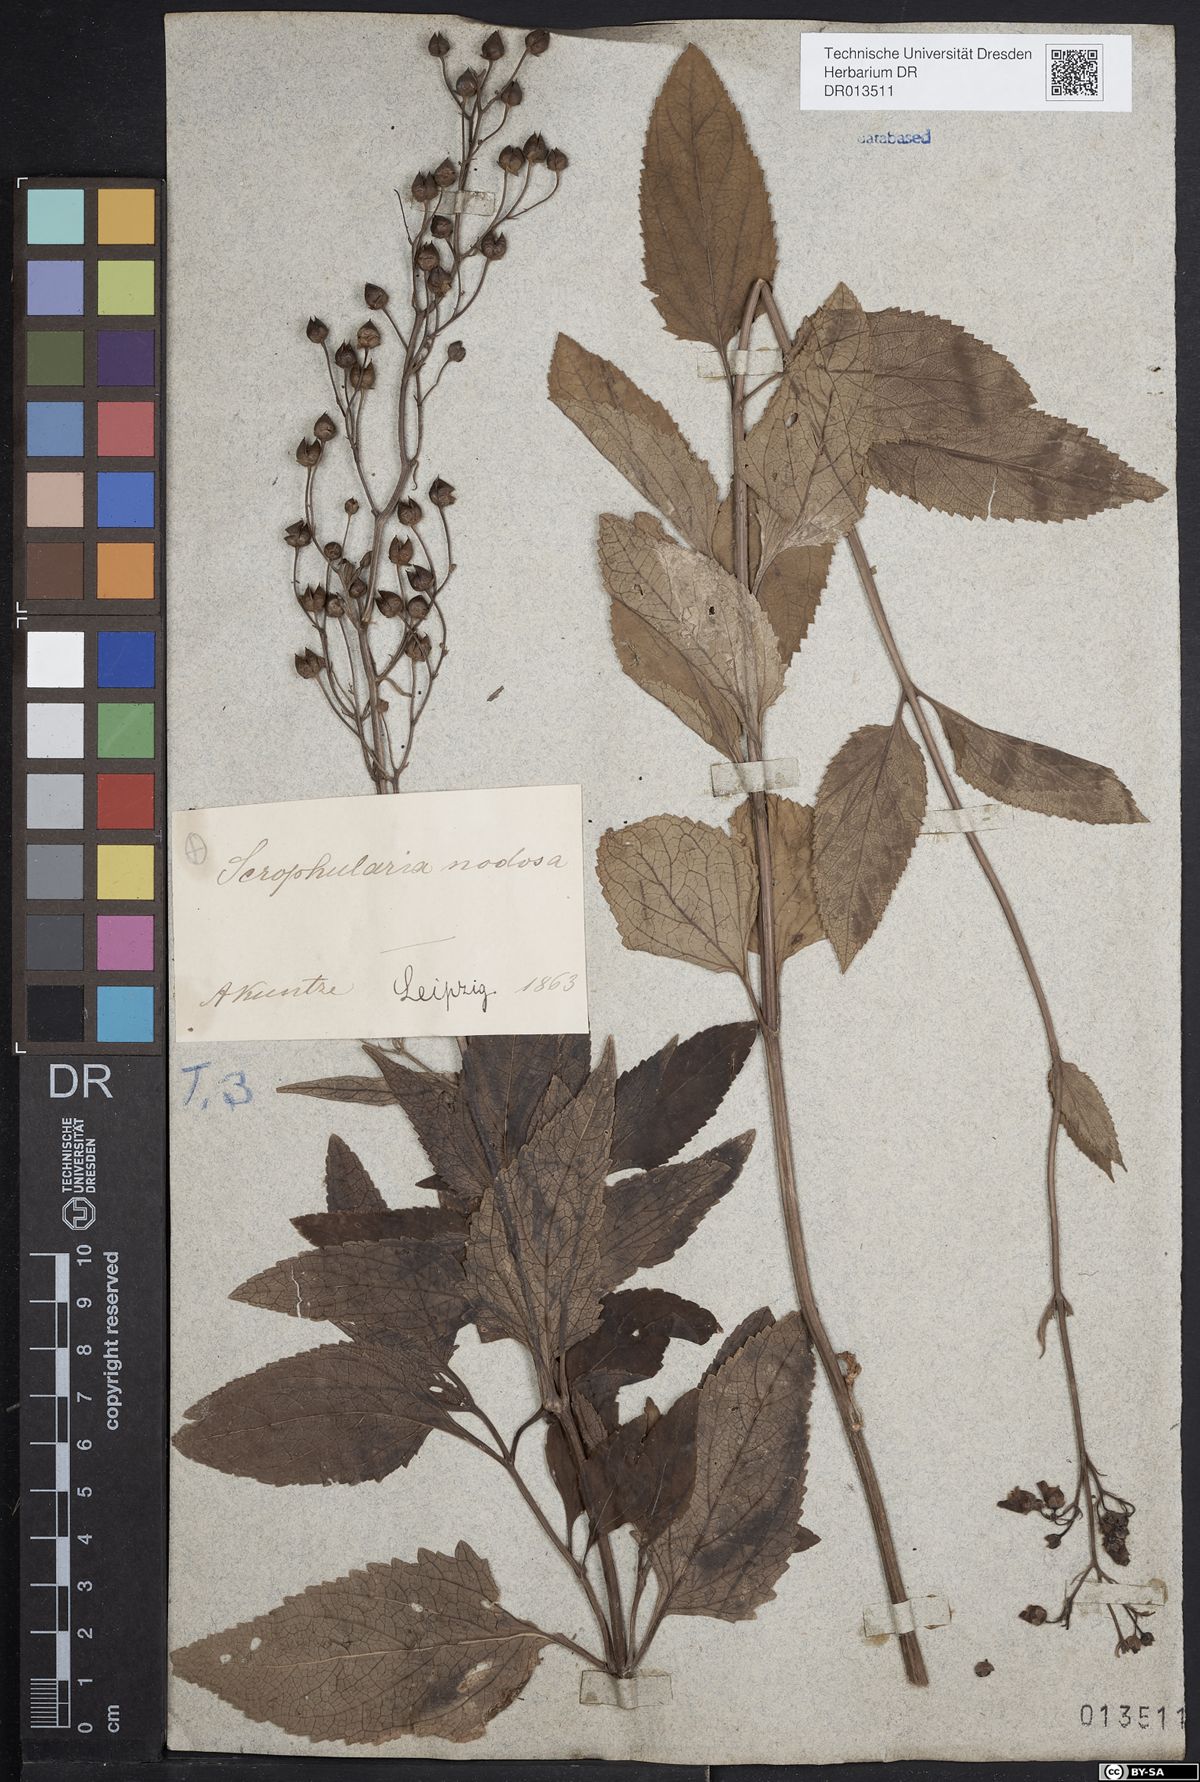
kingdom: Plantae
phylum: Tracheophyta
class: Magnoliopsida
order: Lamiales
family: Scrophulariaceae
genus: Scrophularia
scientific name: Scrophularia nodosa
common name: Common figwort
